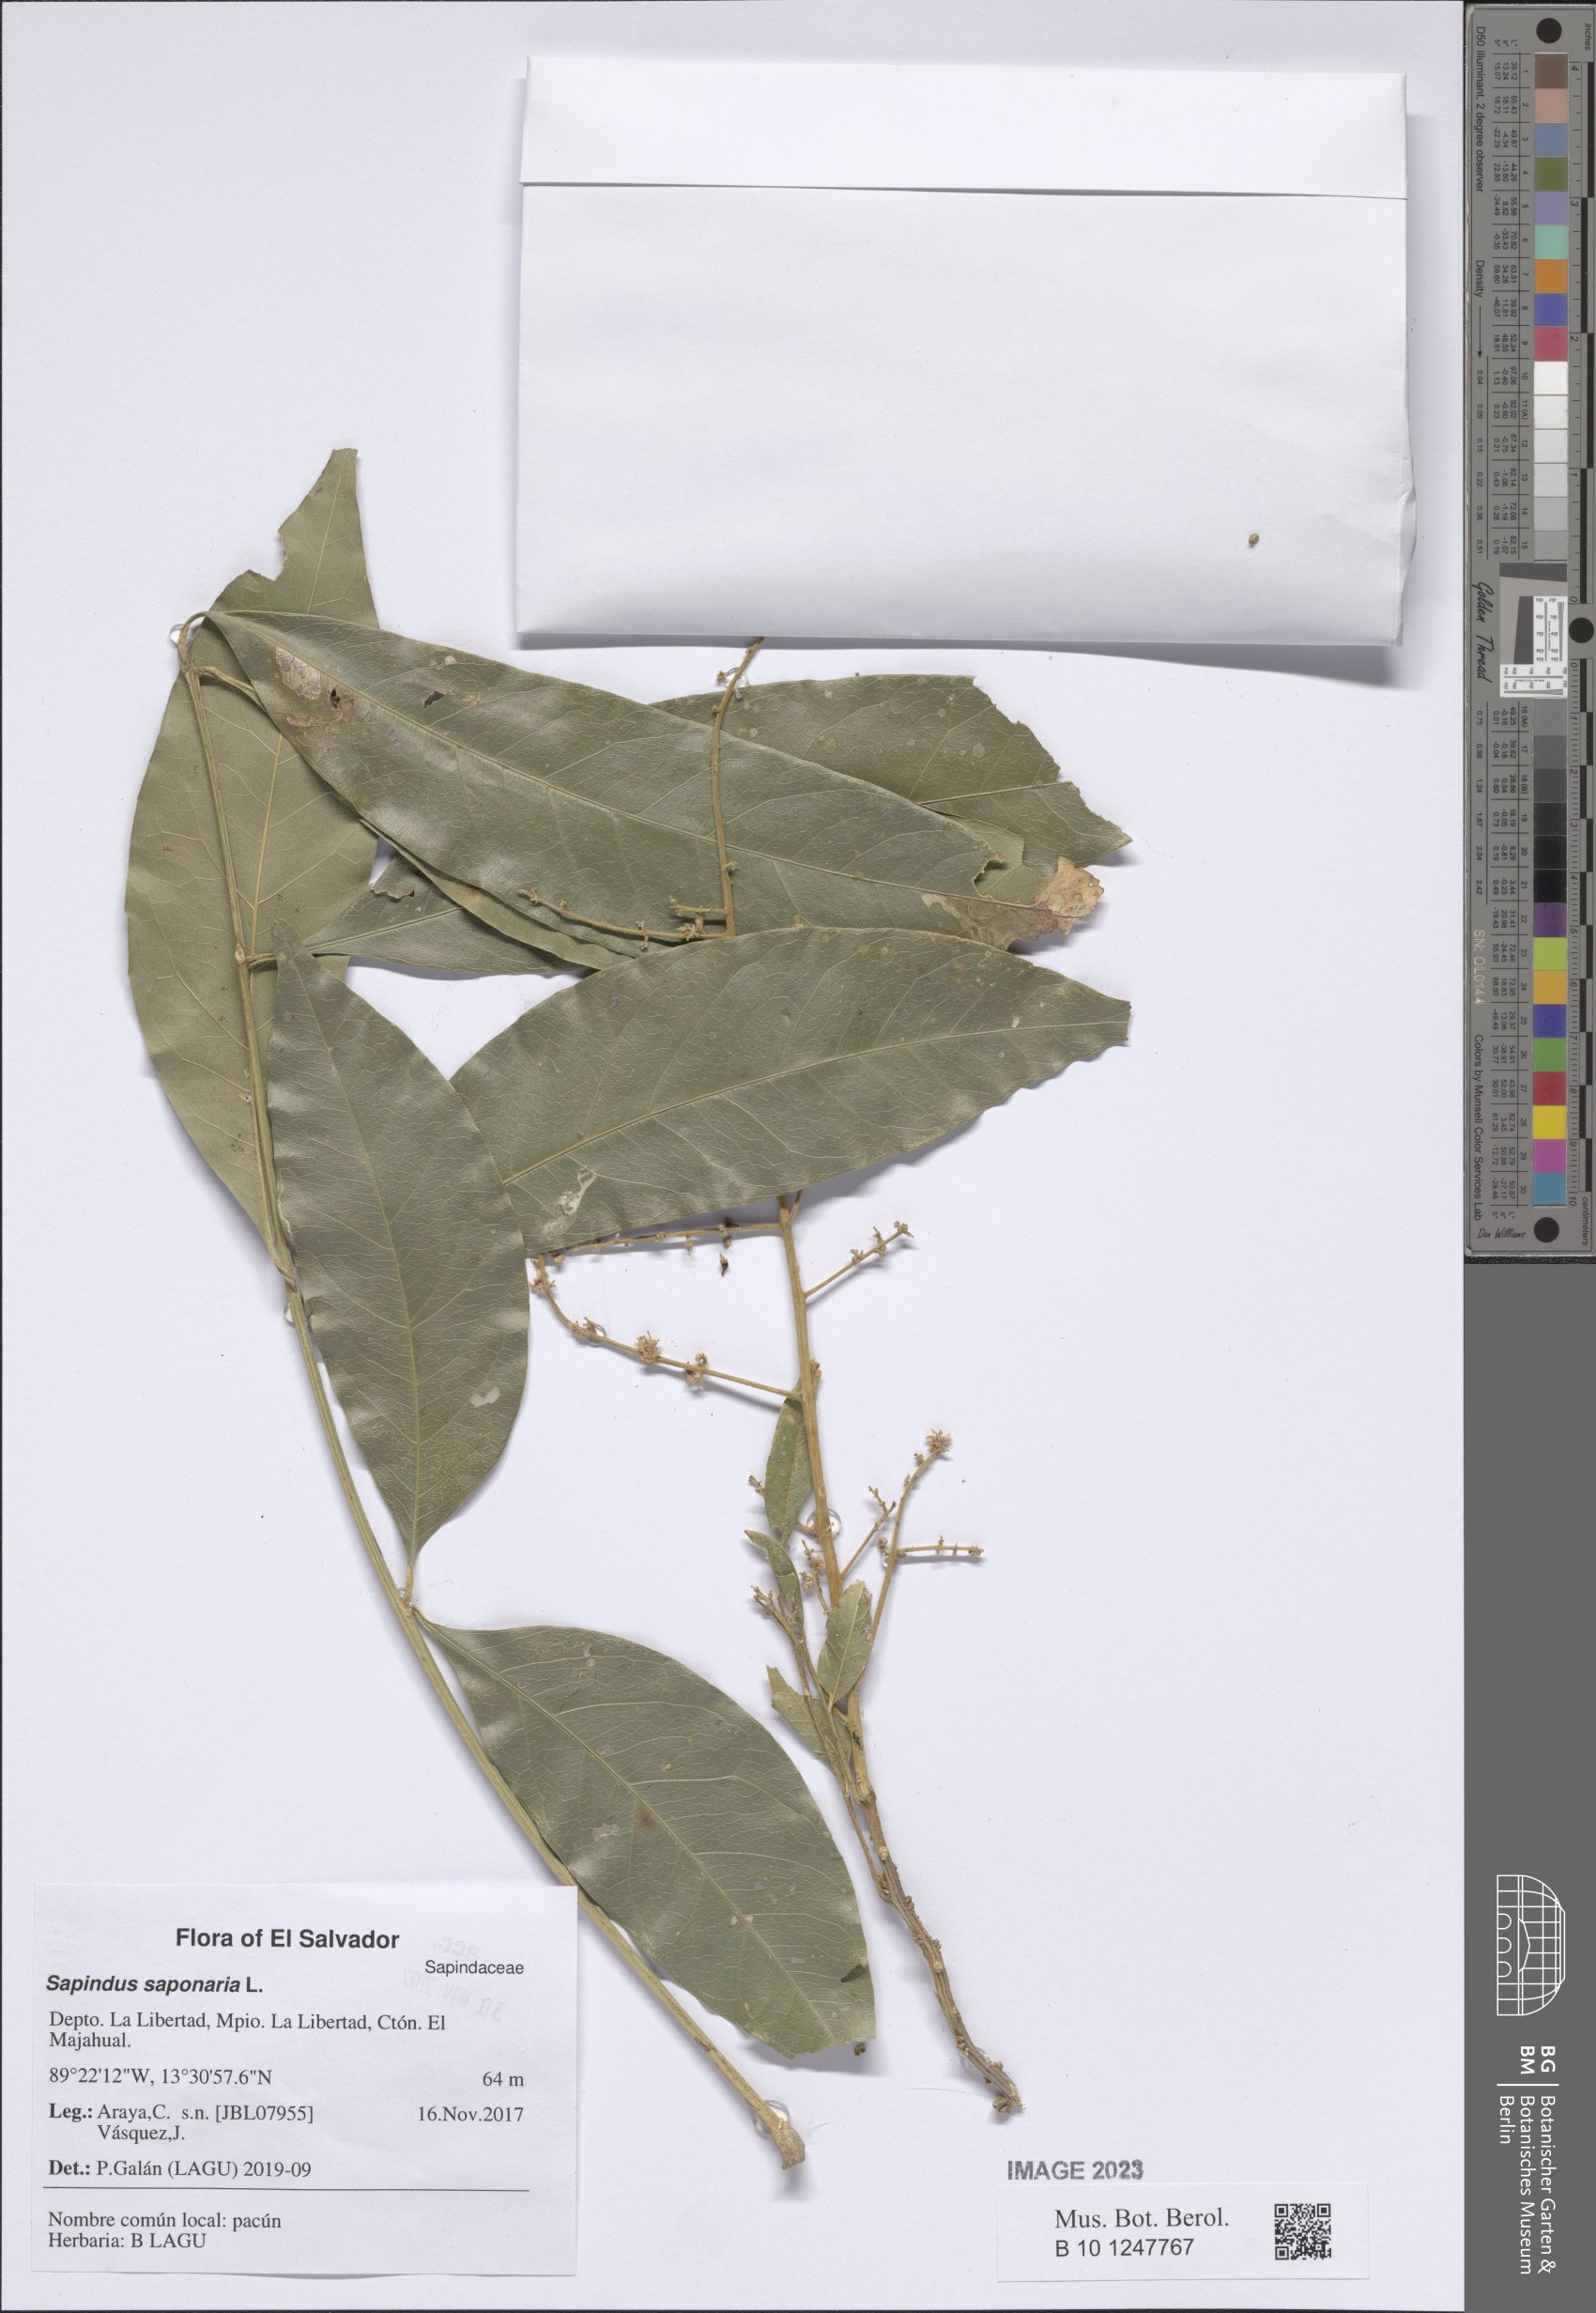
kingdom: Plantae
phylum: Tracheophyta
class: Magnoliopsida
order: Sapindales
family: Sapindaceae
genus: Sapindus
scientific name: Sapindus saponaria
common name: Wingleaf soapberry
